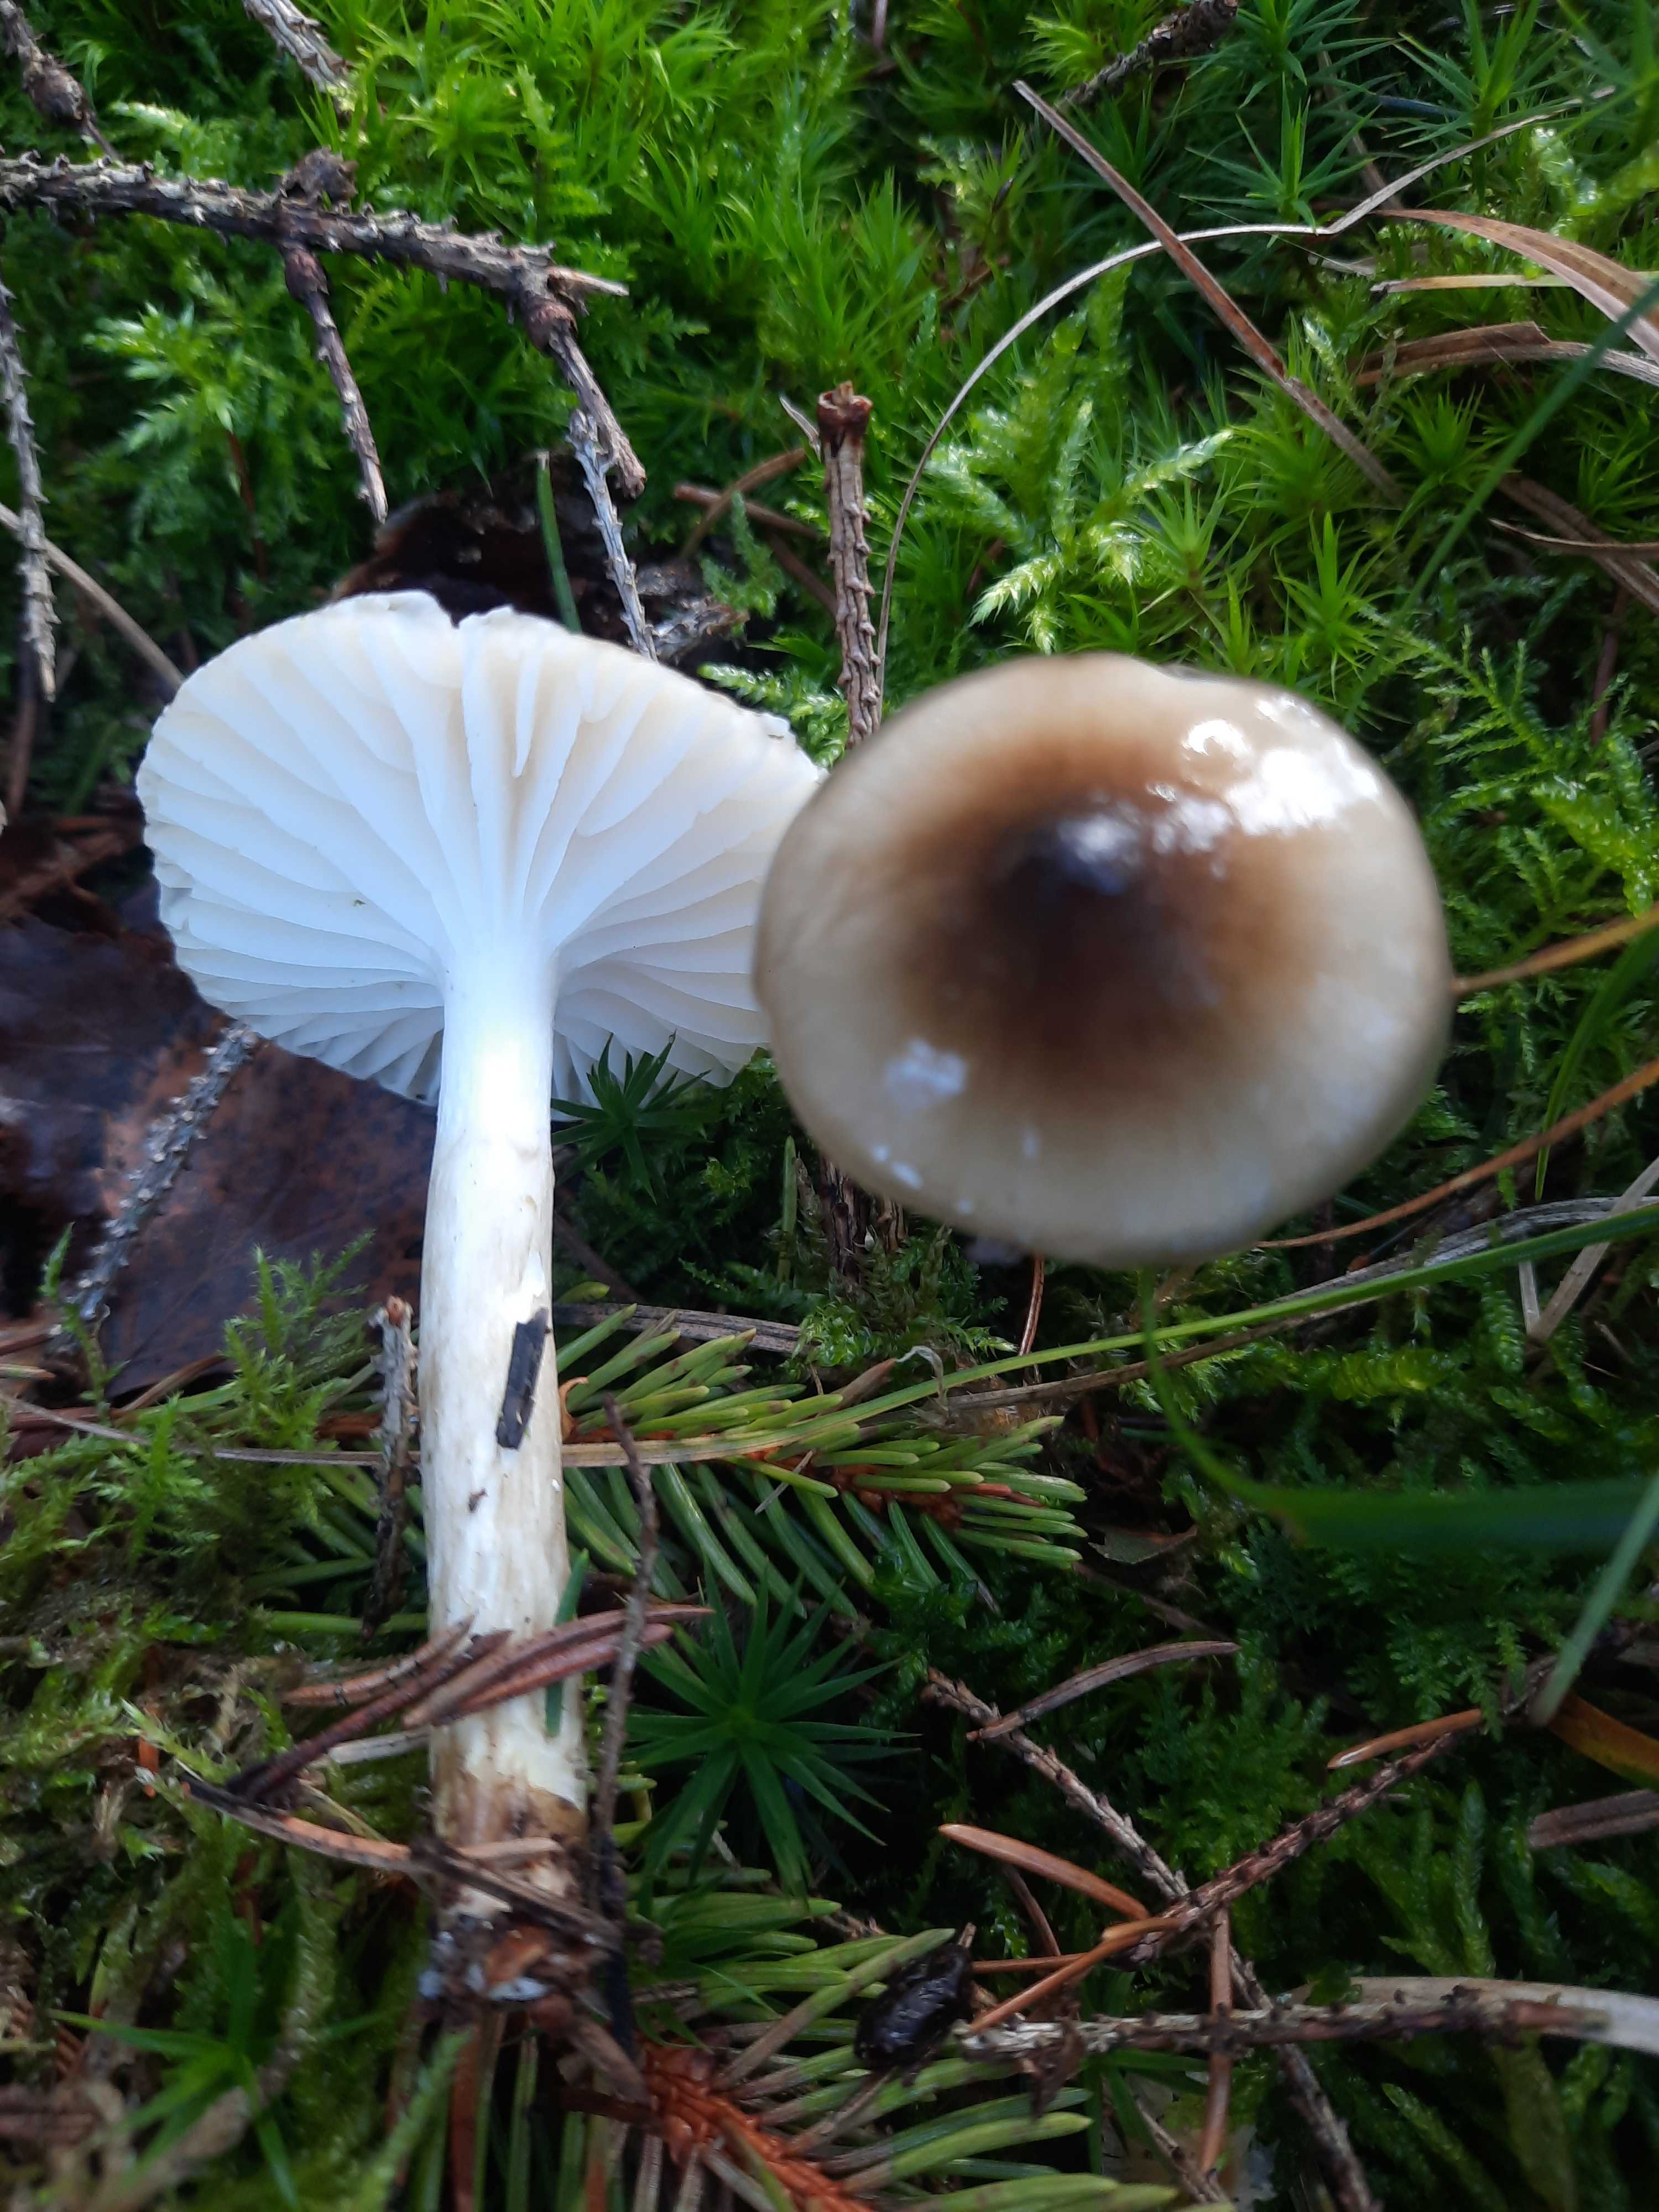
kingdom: Fungi
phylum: Basidiomycota
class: Agaricomycetes
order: Agaricales
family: Hygrophoraceae
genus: Hygrophorus
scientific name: Hygrophorus olivaceoalbus
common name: hvidbrun sneglehat
